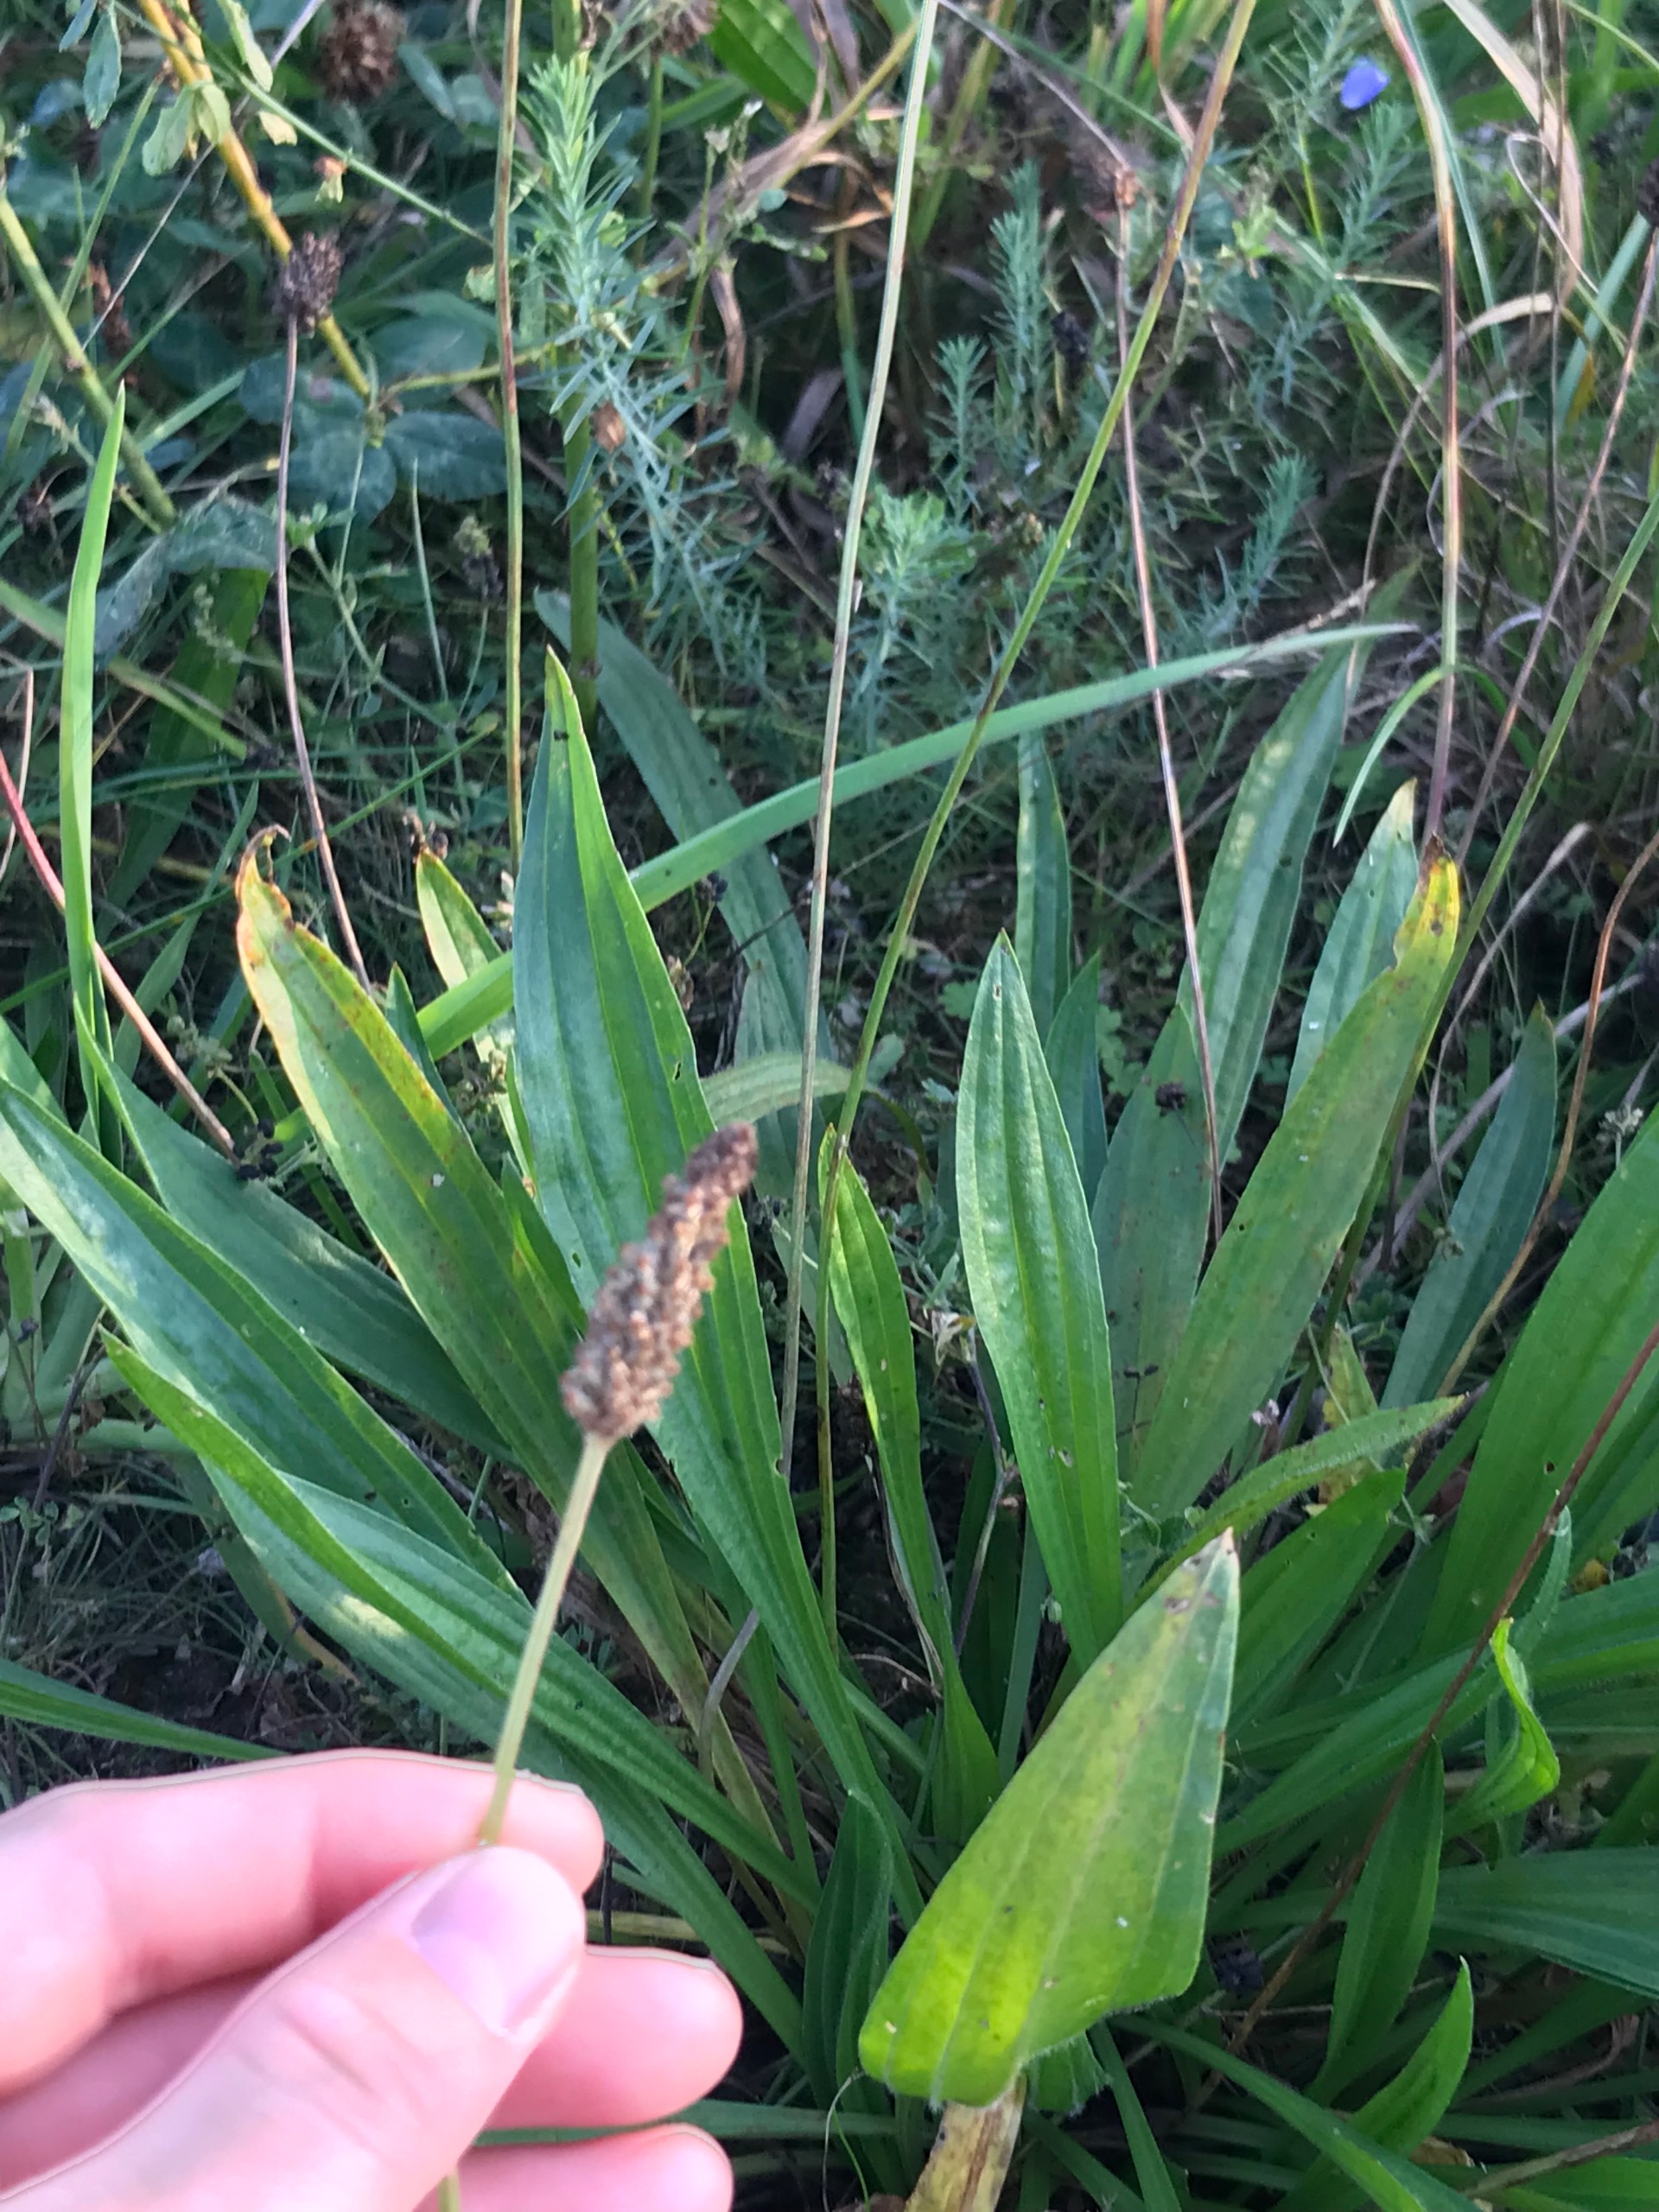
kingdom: Plantae
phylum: Tracheophyta
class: Magnoliopsida
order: Lamiales
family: Plantaginaceae
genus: Plantago
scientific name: Plantago lanceolata
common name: Lancet-vejbred
